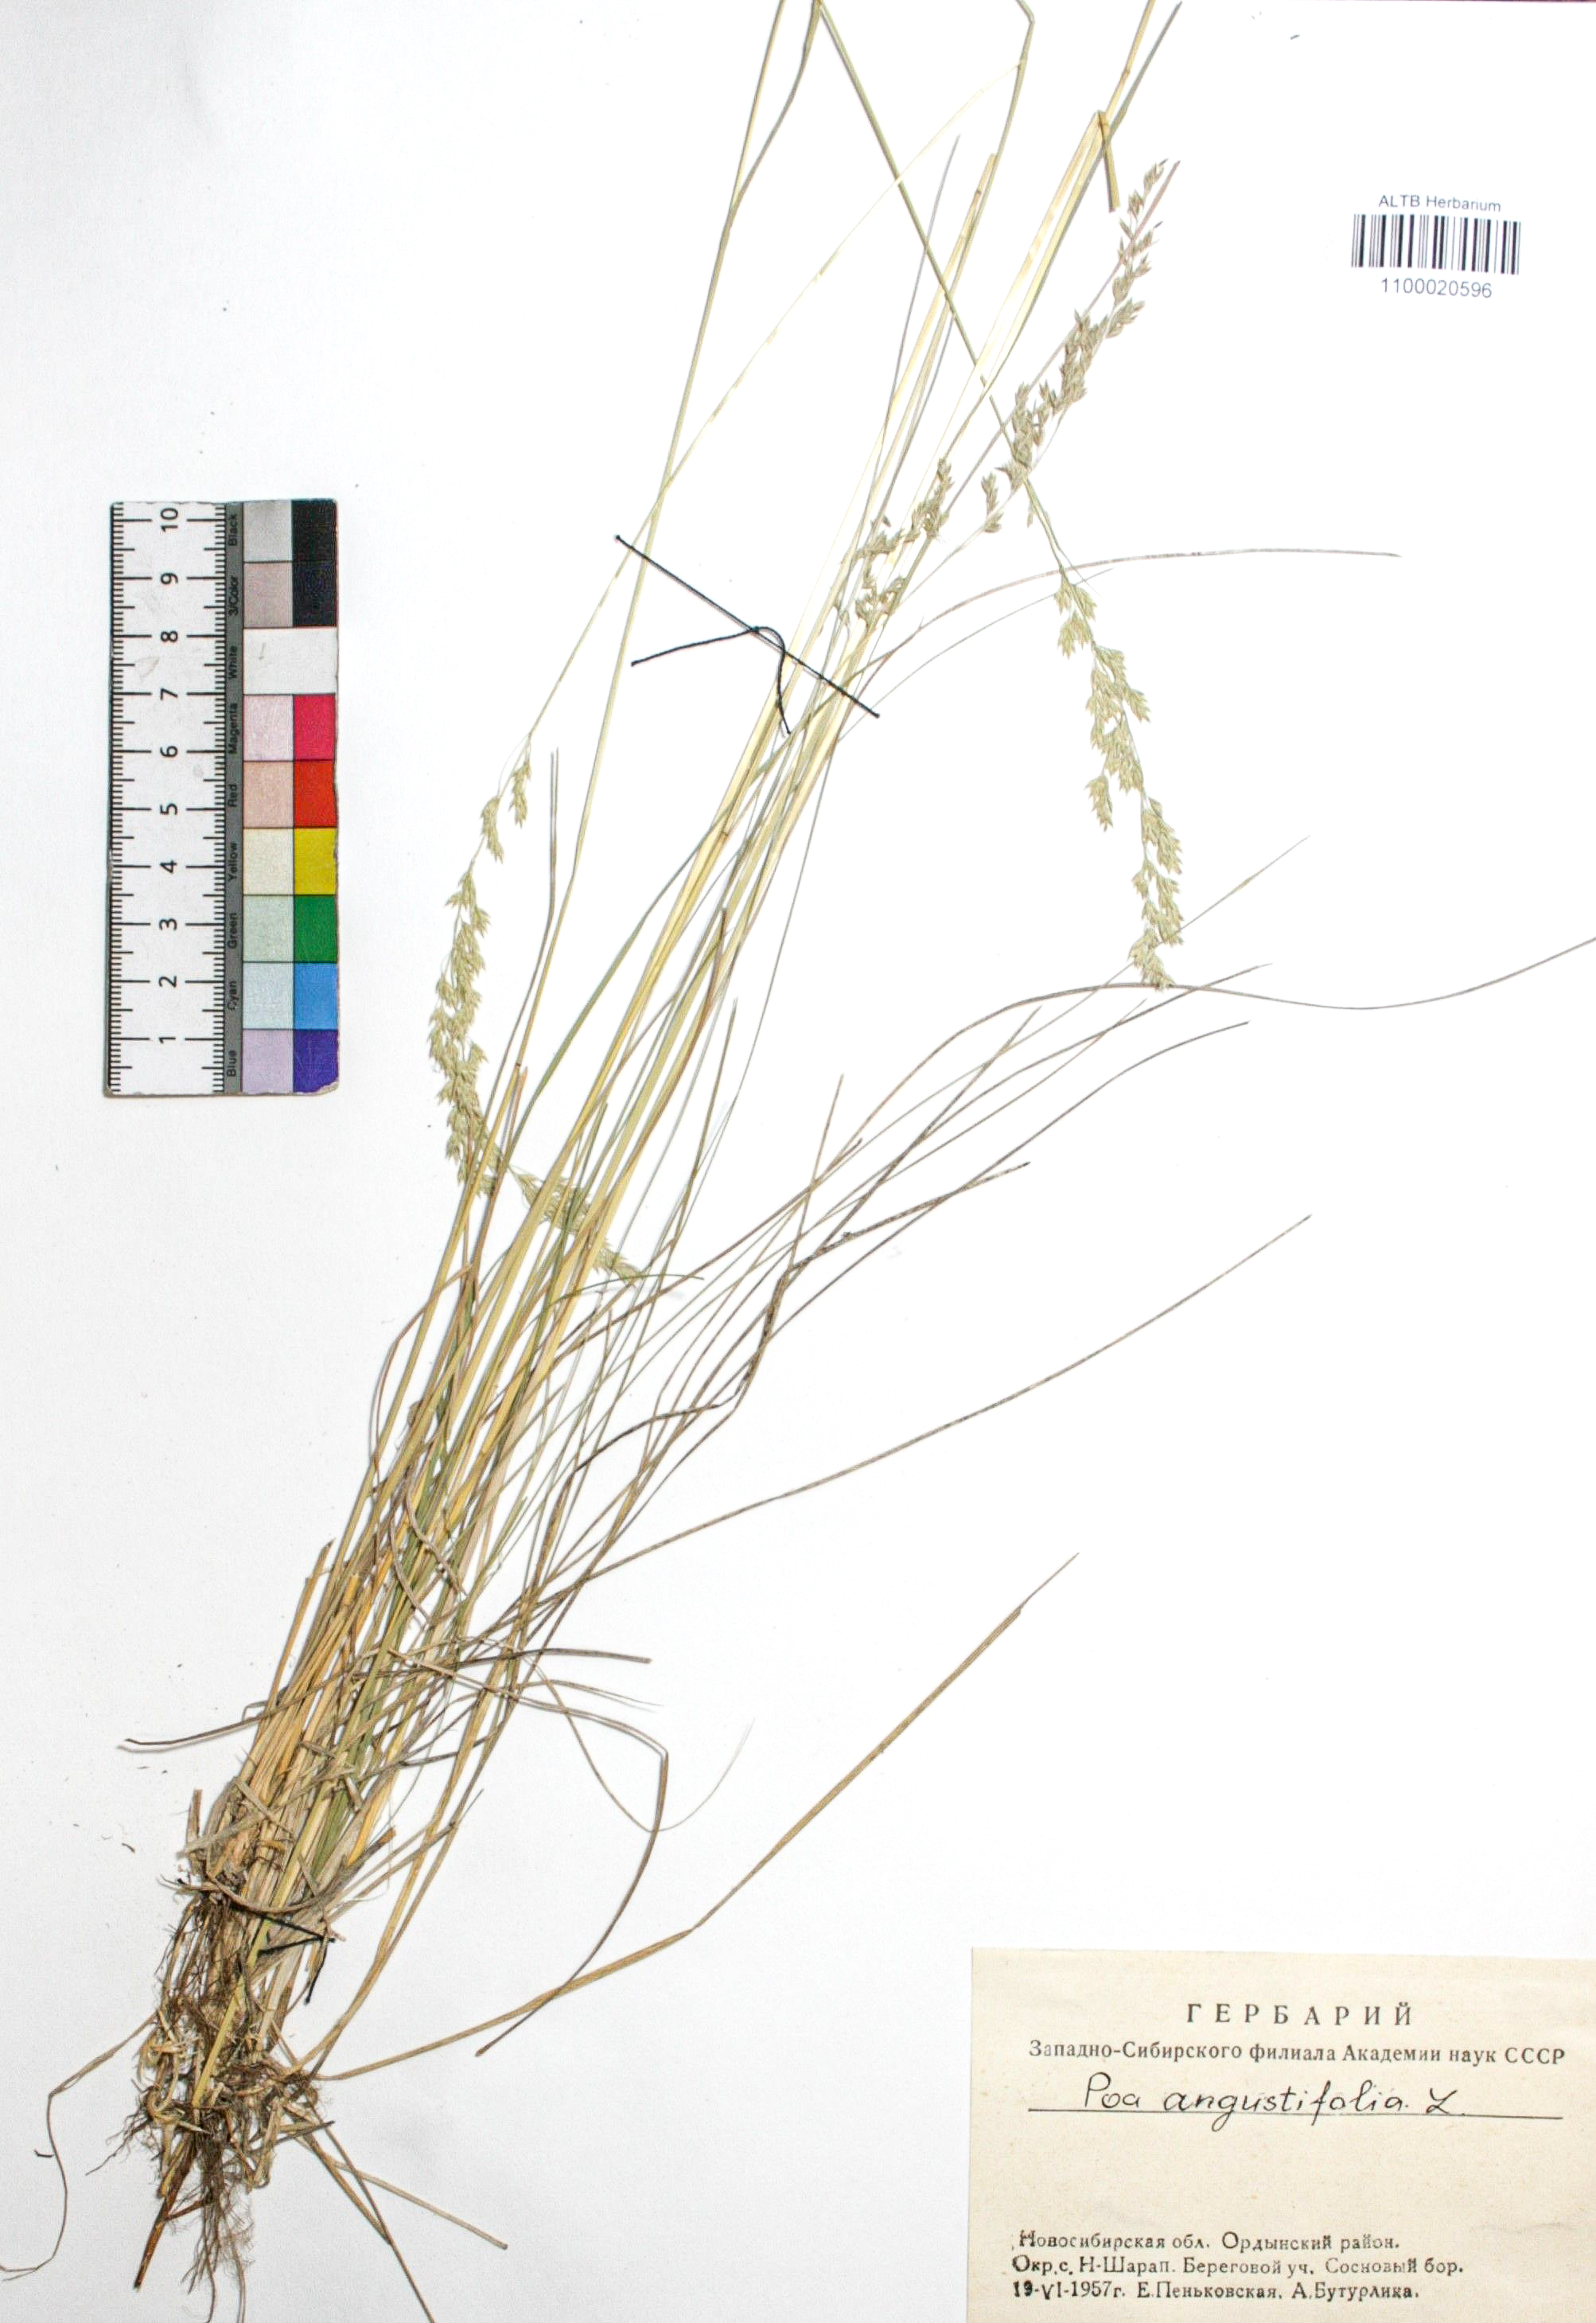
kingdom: Plantae
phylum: Tracheophyta
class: Liliopsida
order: Poales
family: Poaceae
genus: Poa
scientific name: Poa angustifolia
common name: Narrow-leaved meadow-grass
